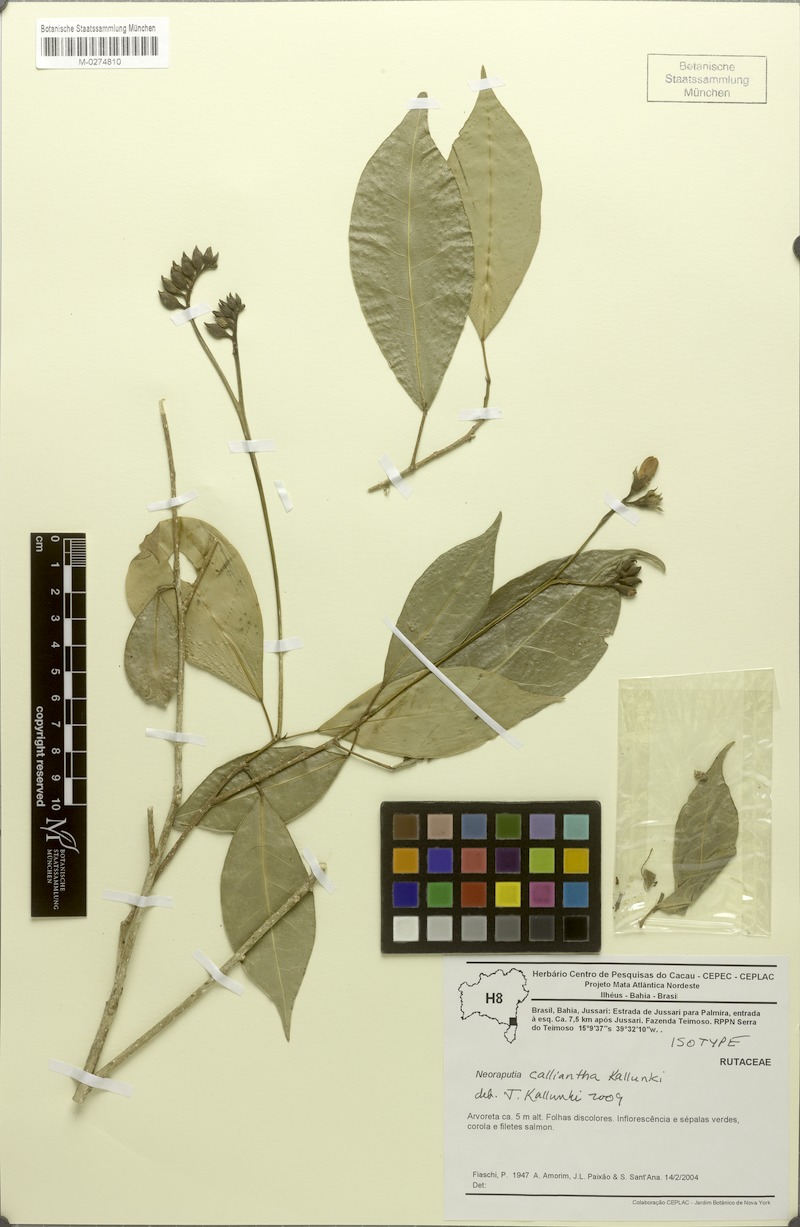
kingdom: Plantae
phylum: Tracheophyta
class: Magnoliopsida
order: Sapindales
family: Rutaceae
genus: Neoraputia
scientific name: Neoraputia calliantha
